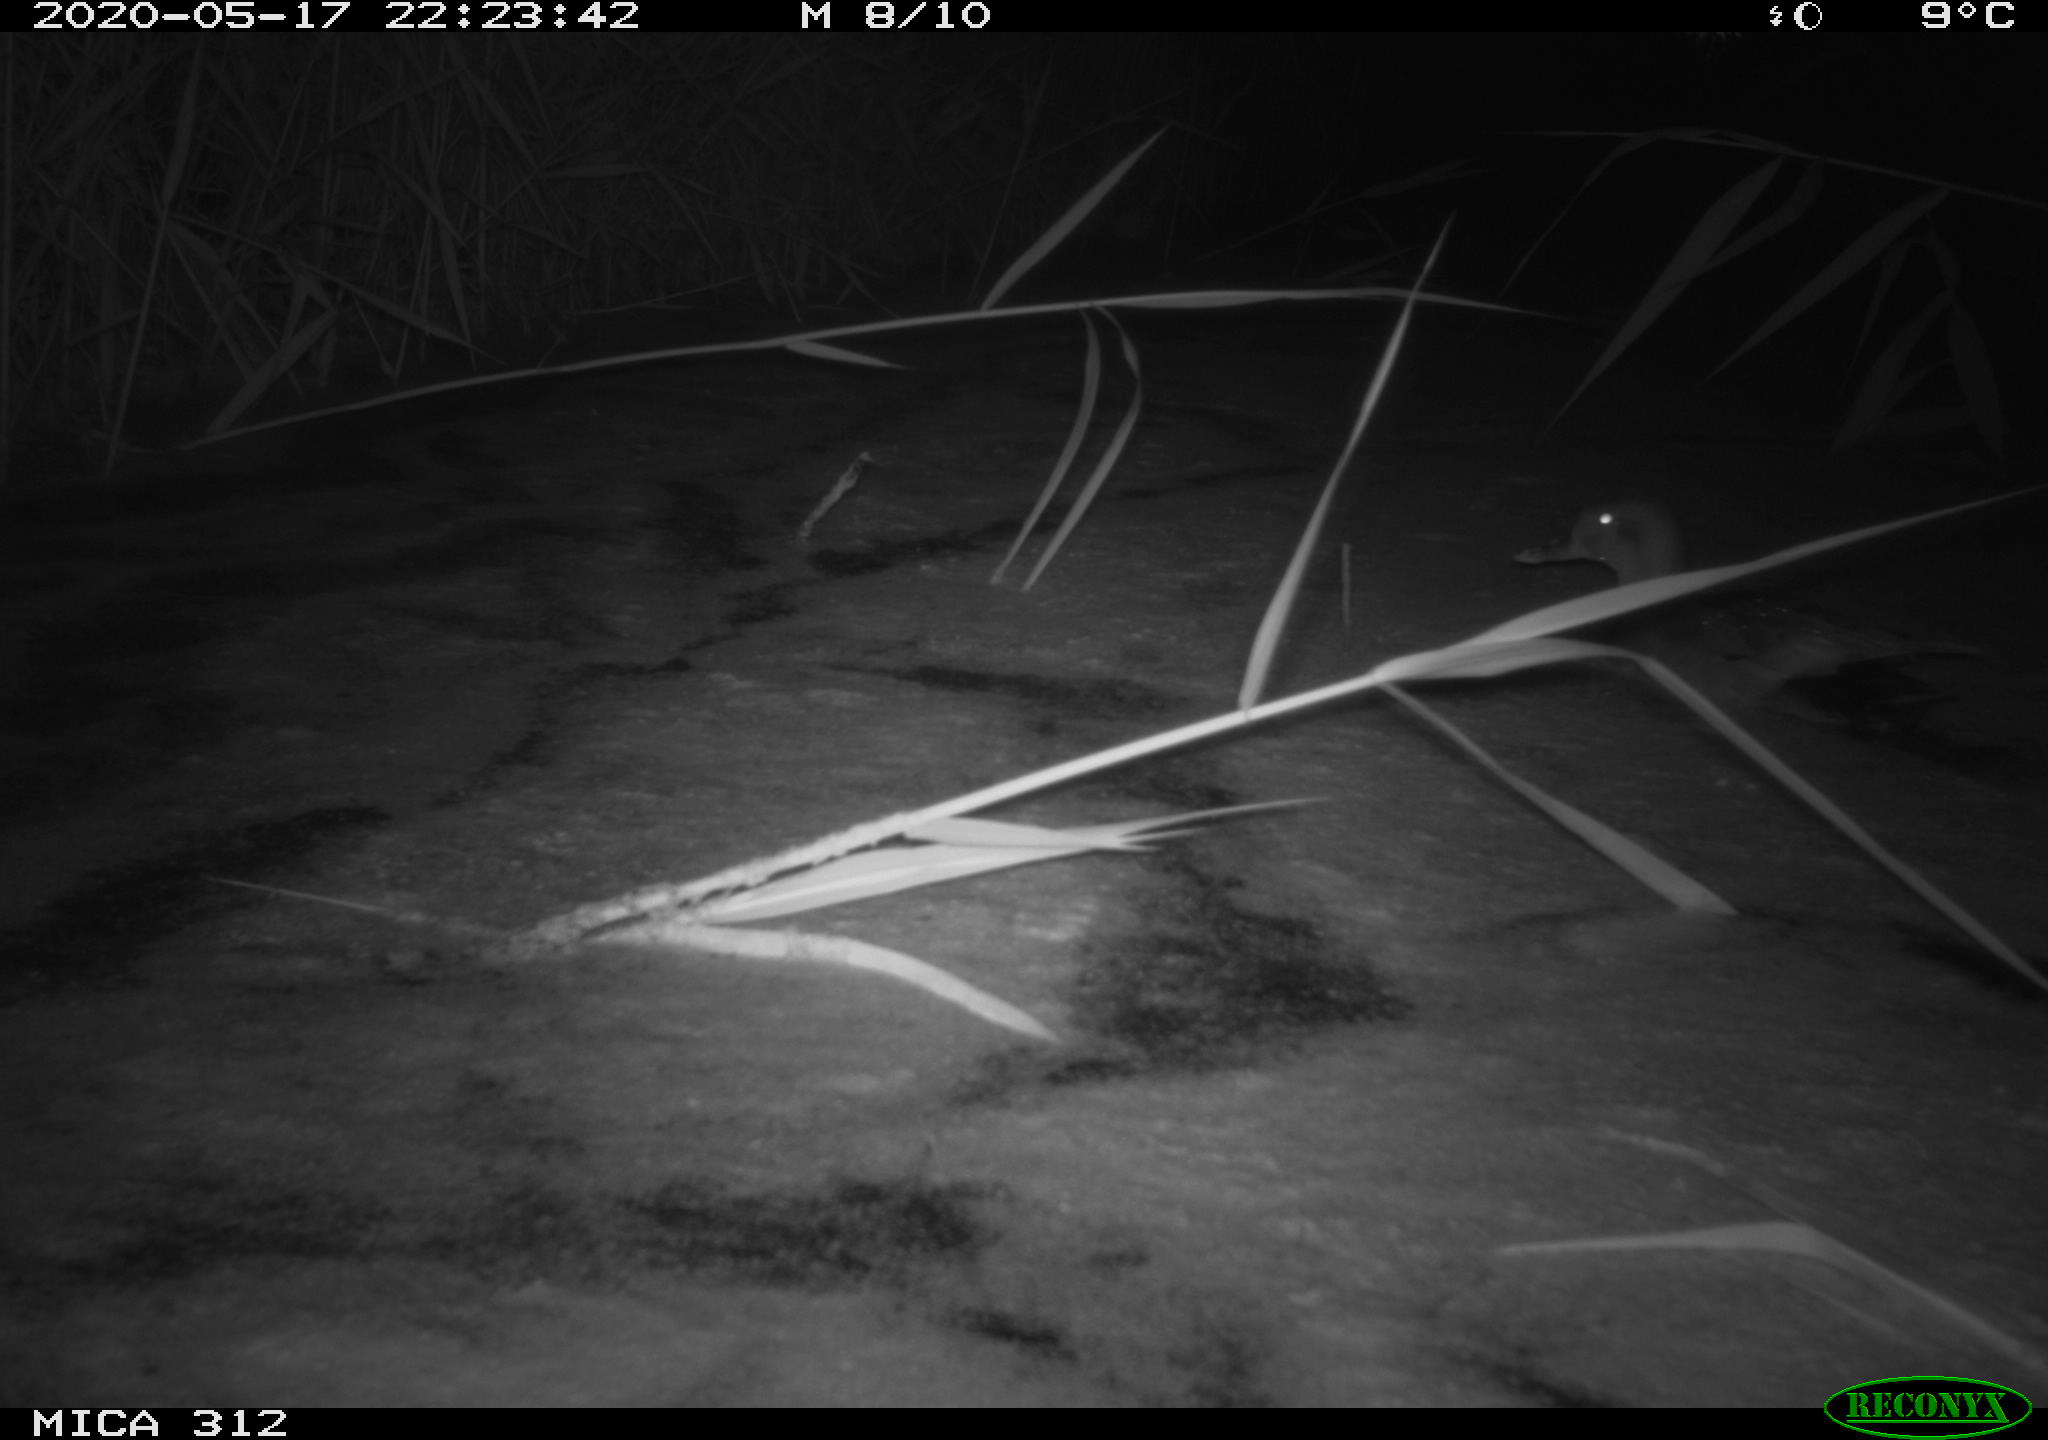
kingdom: Animalia
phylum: Chordata
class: Aves
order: Anseriformes
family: Anatidae
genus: Anas
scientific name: Anas platyrhynchos
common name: Mallard
